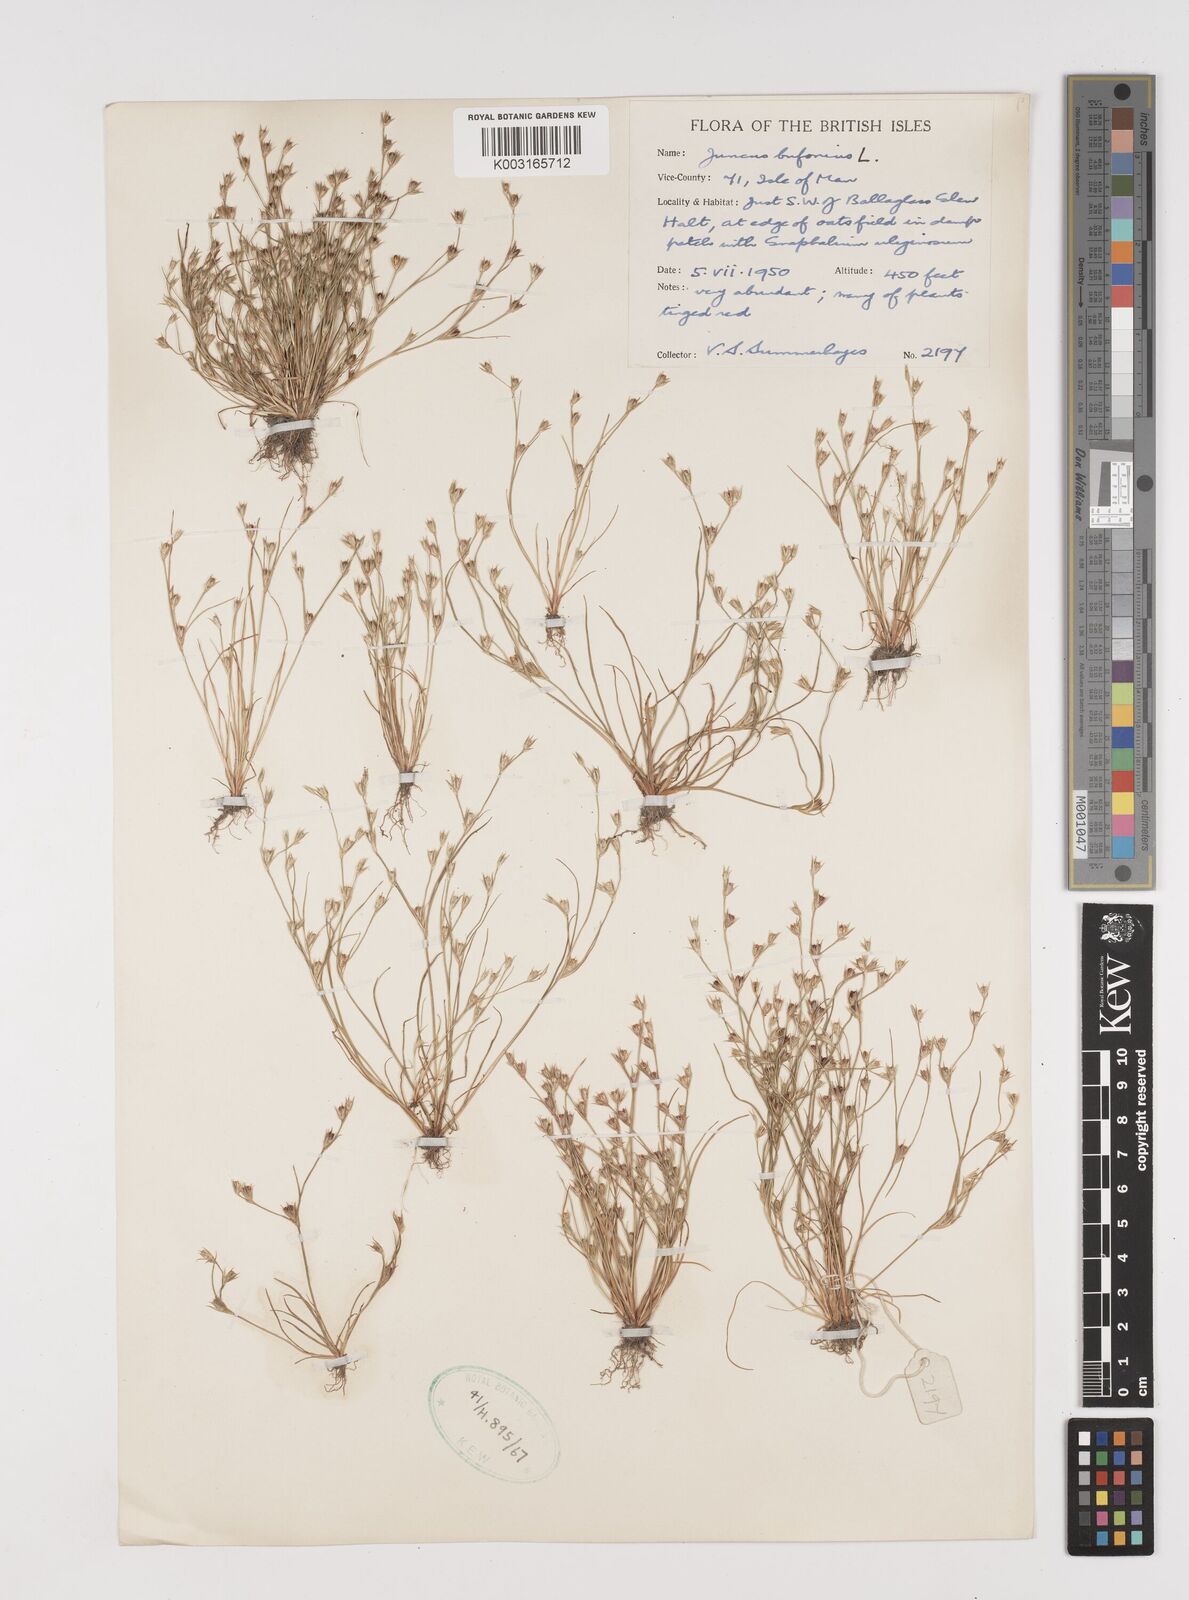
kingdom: Plantae
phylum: Tracheophyta
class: Liliopsida
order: Poales
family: Juncaceae
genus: Juncus
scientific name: Juncus bufonius
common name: Toad rush
